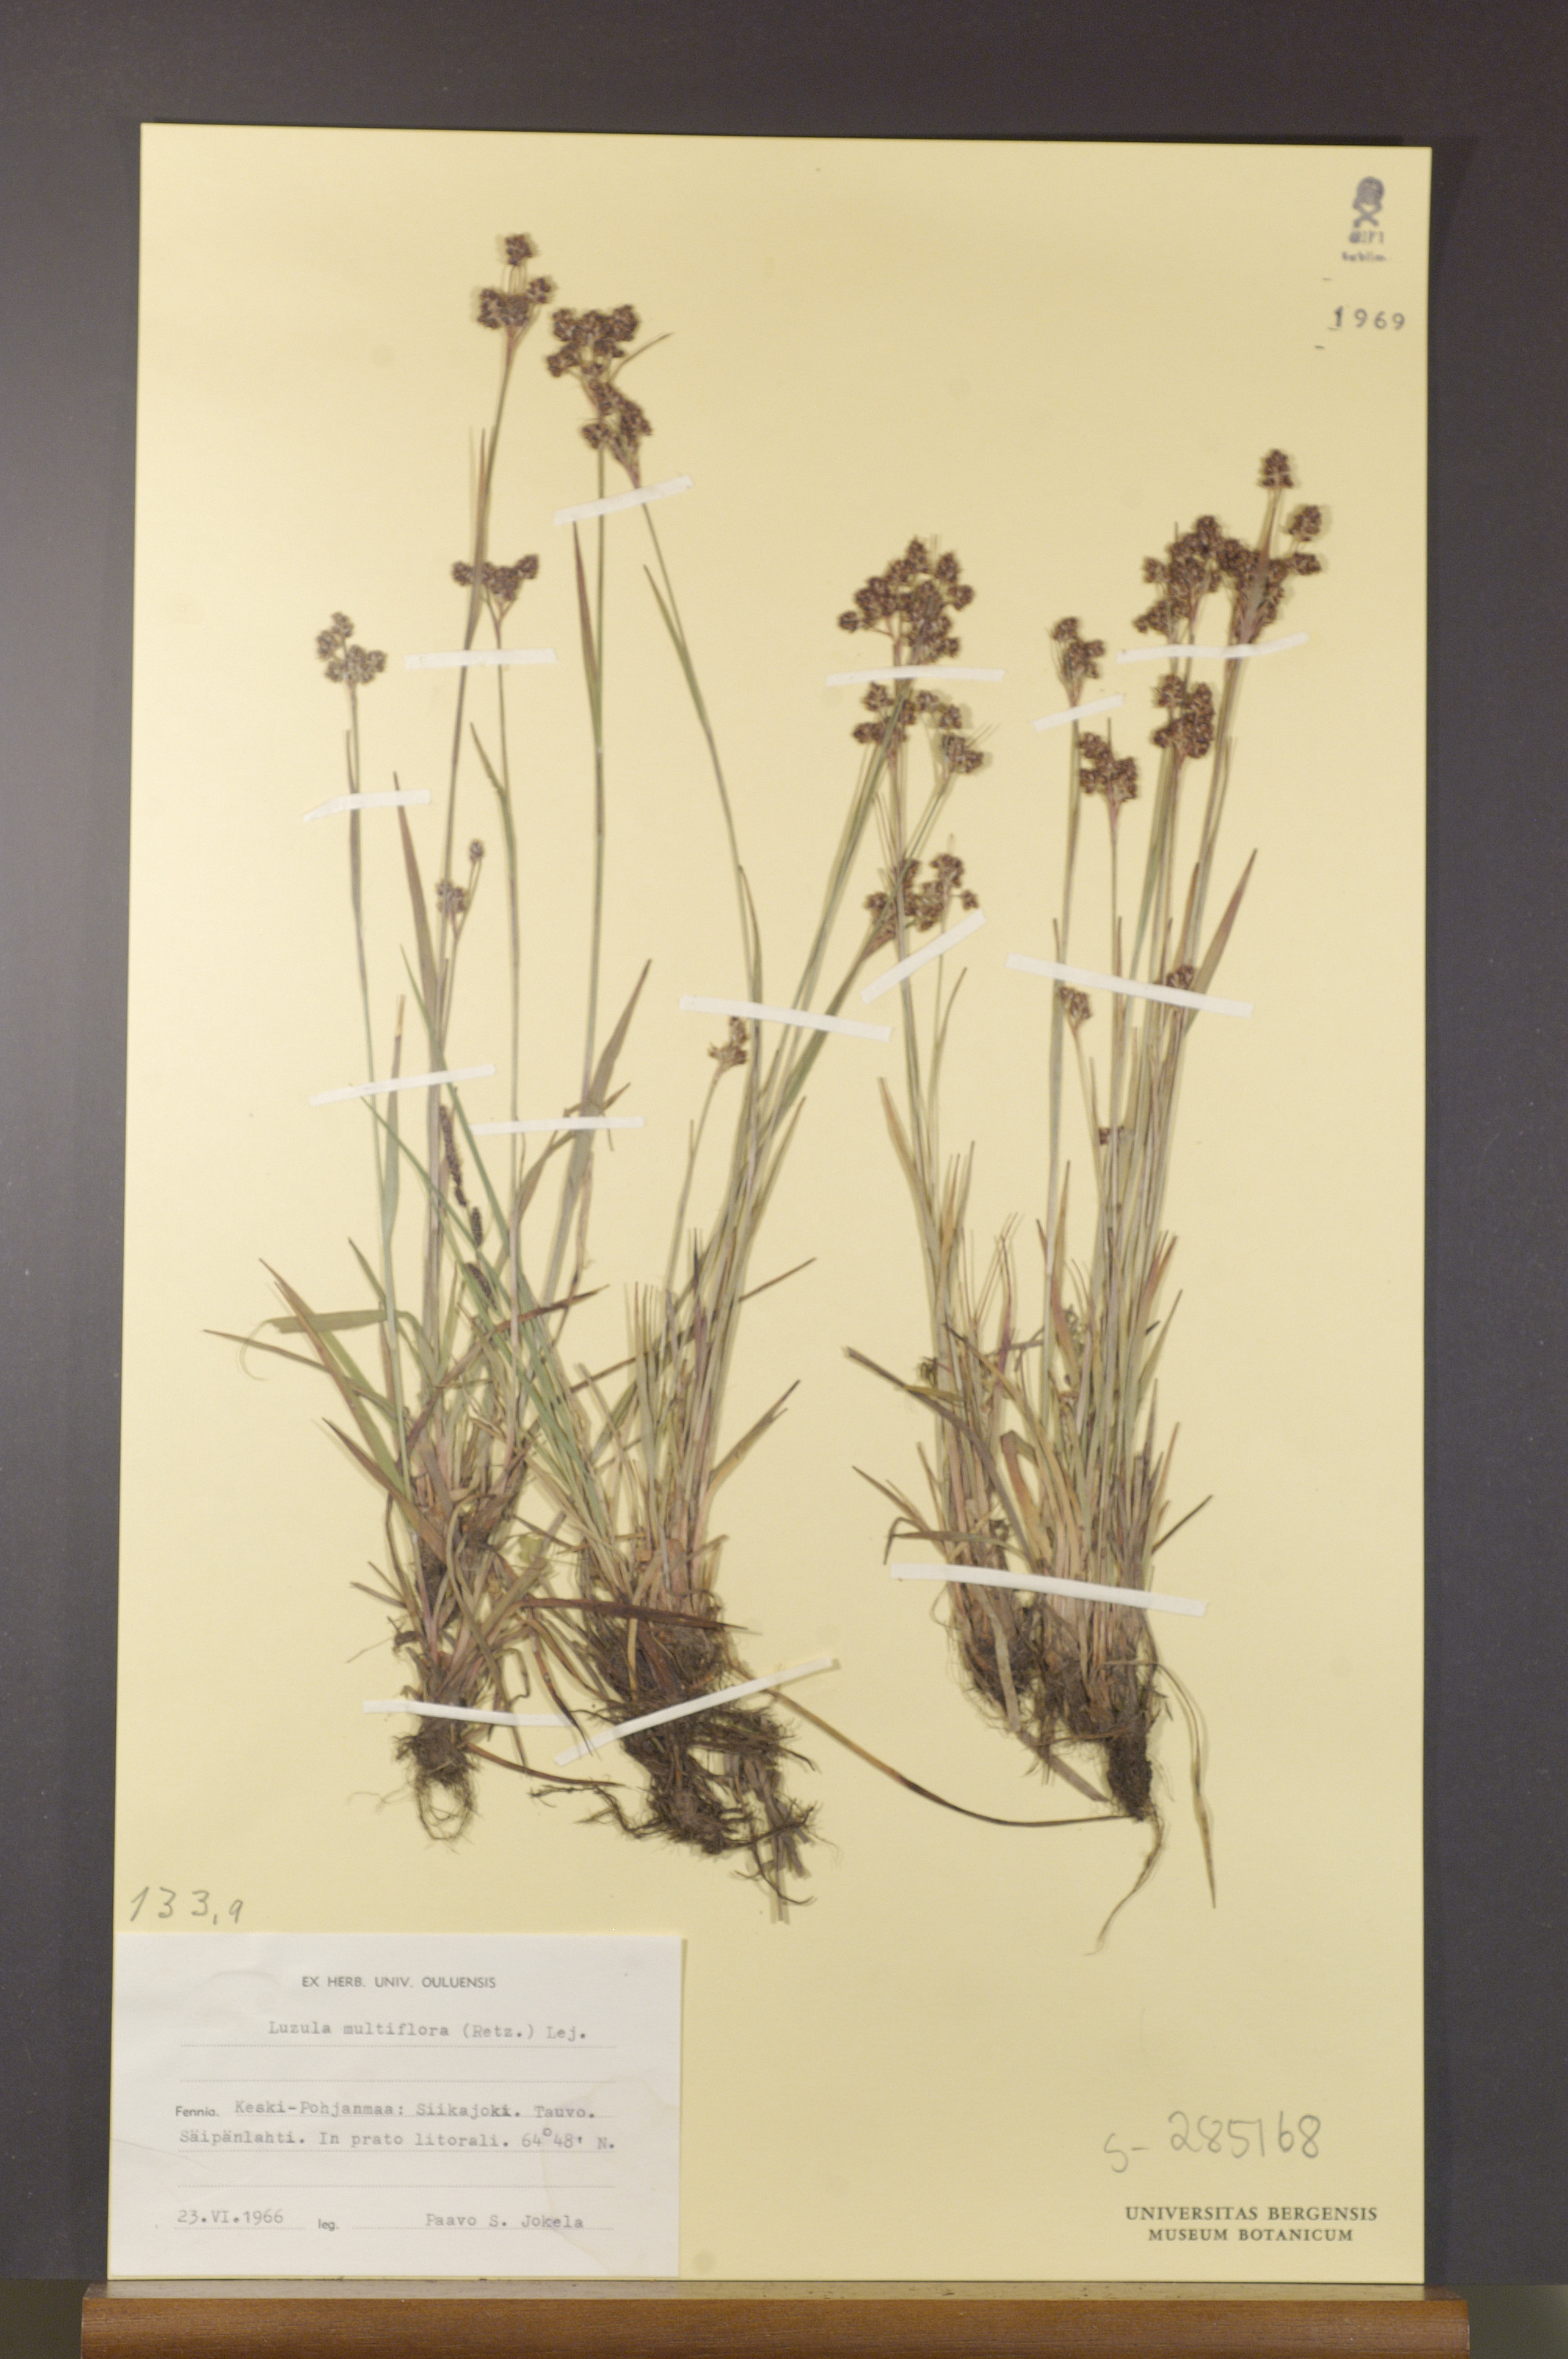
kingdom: Plantae
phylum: Tracheophyta
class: Liliopsida
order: Poales
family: Juncaceae
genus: Luzula
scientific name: Luzula multiflora
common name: Heath wood-rush
